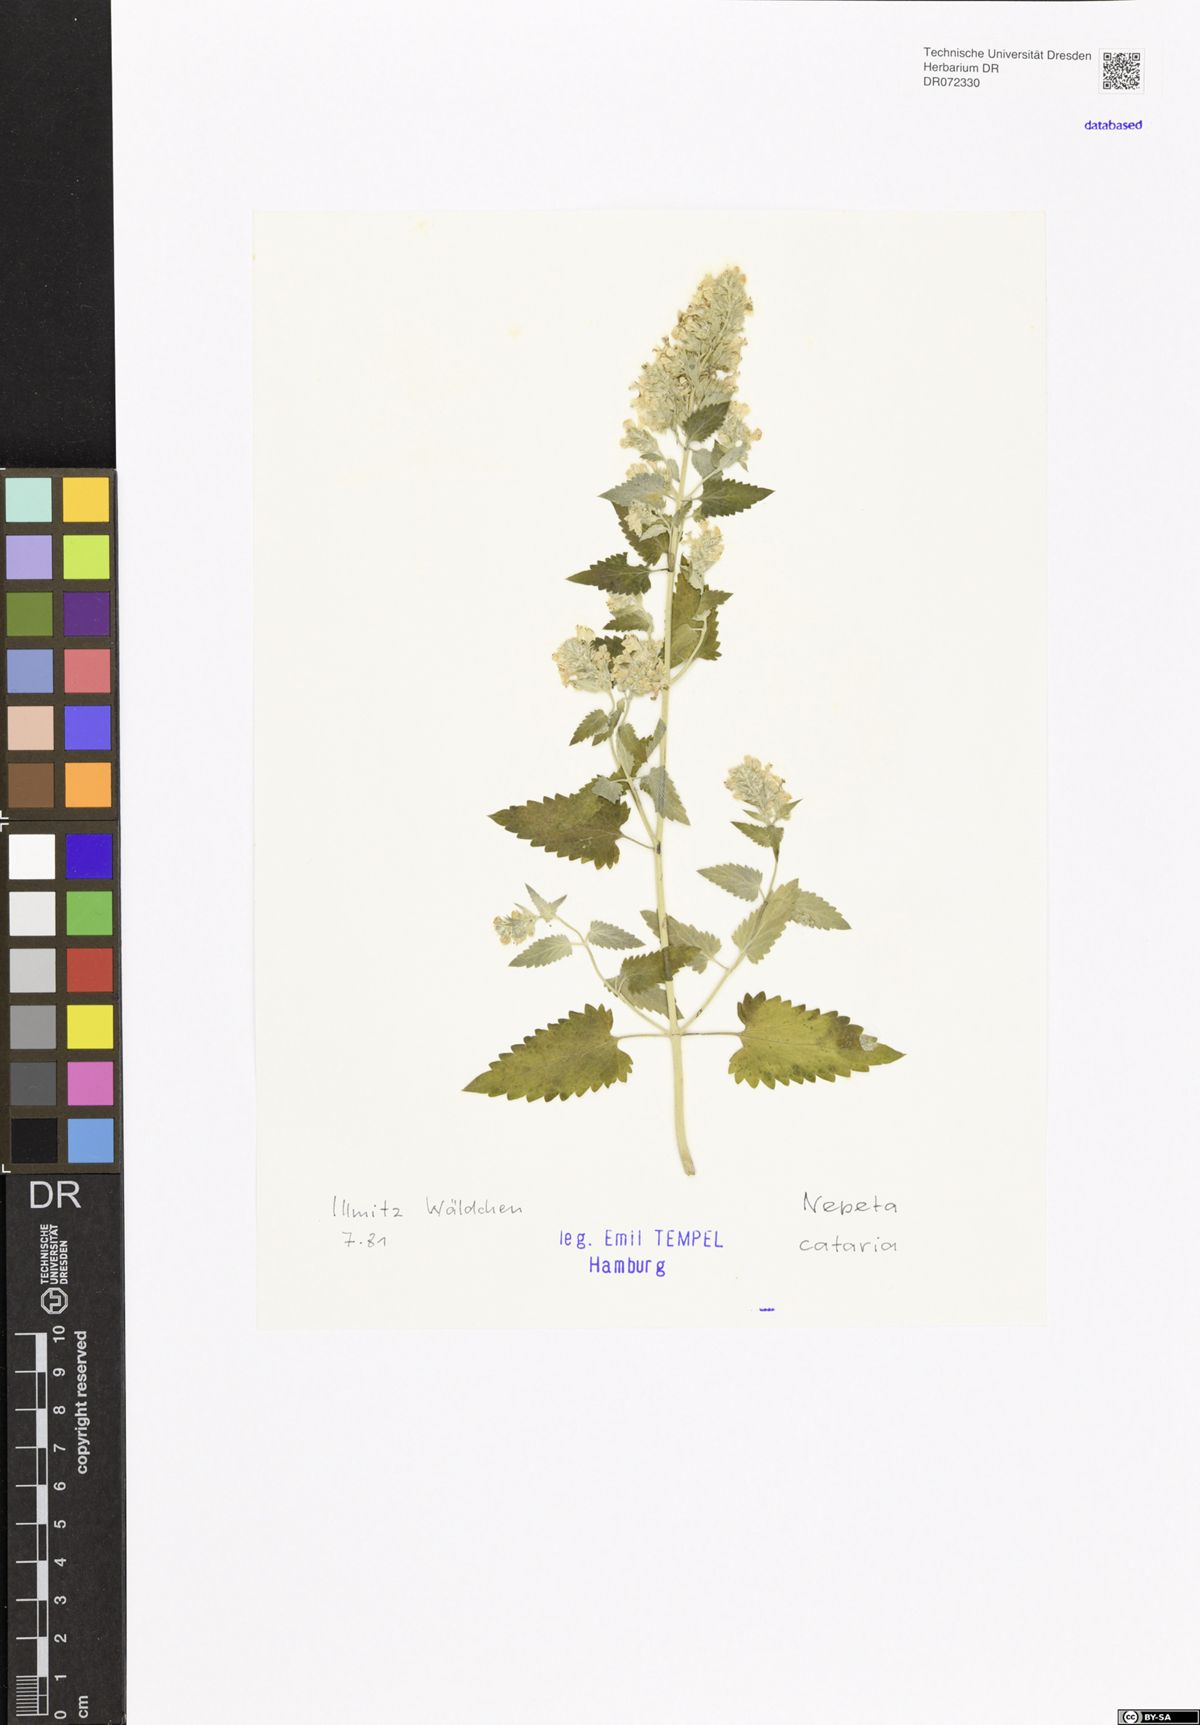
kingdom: Plantae
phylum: Tracheophyta
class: Magnoliopsida
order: Lamiales
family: Lamiaceae
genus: Nepeta
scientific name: Nepeta cataria
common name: Catnip
